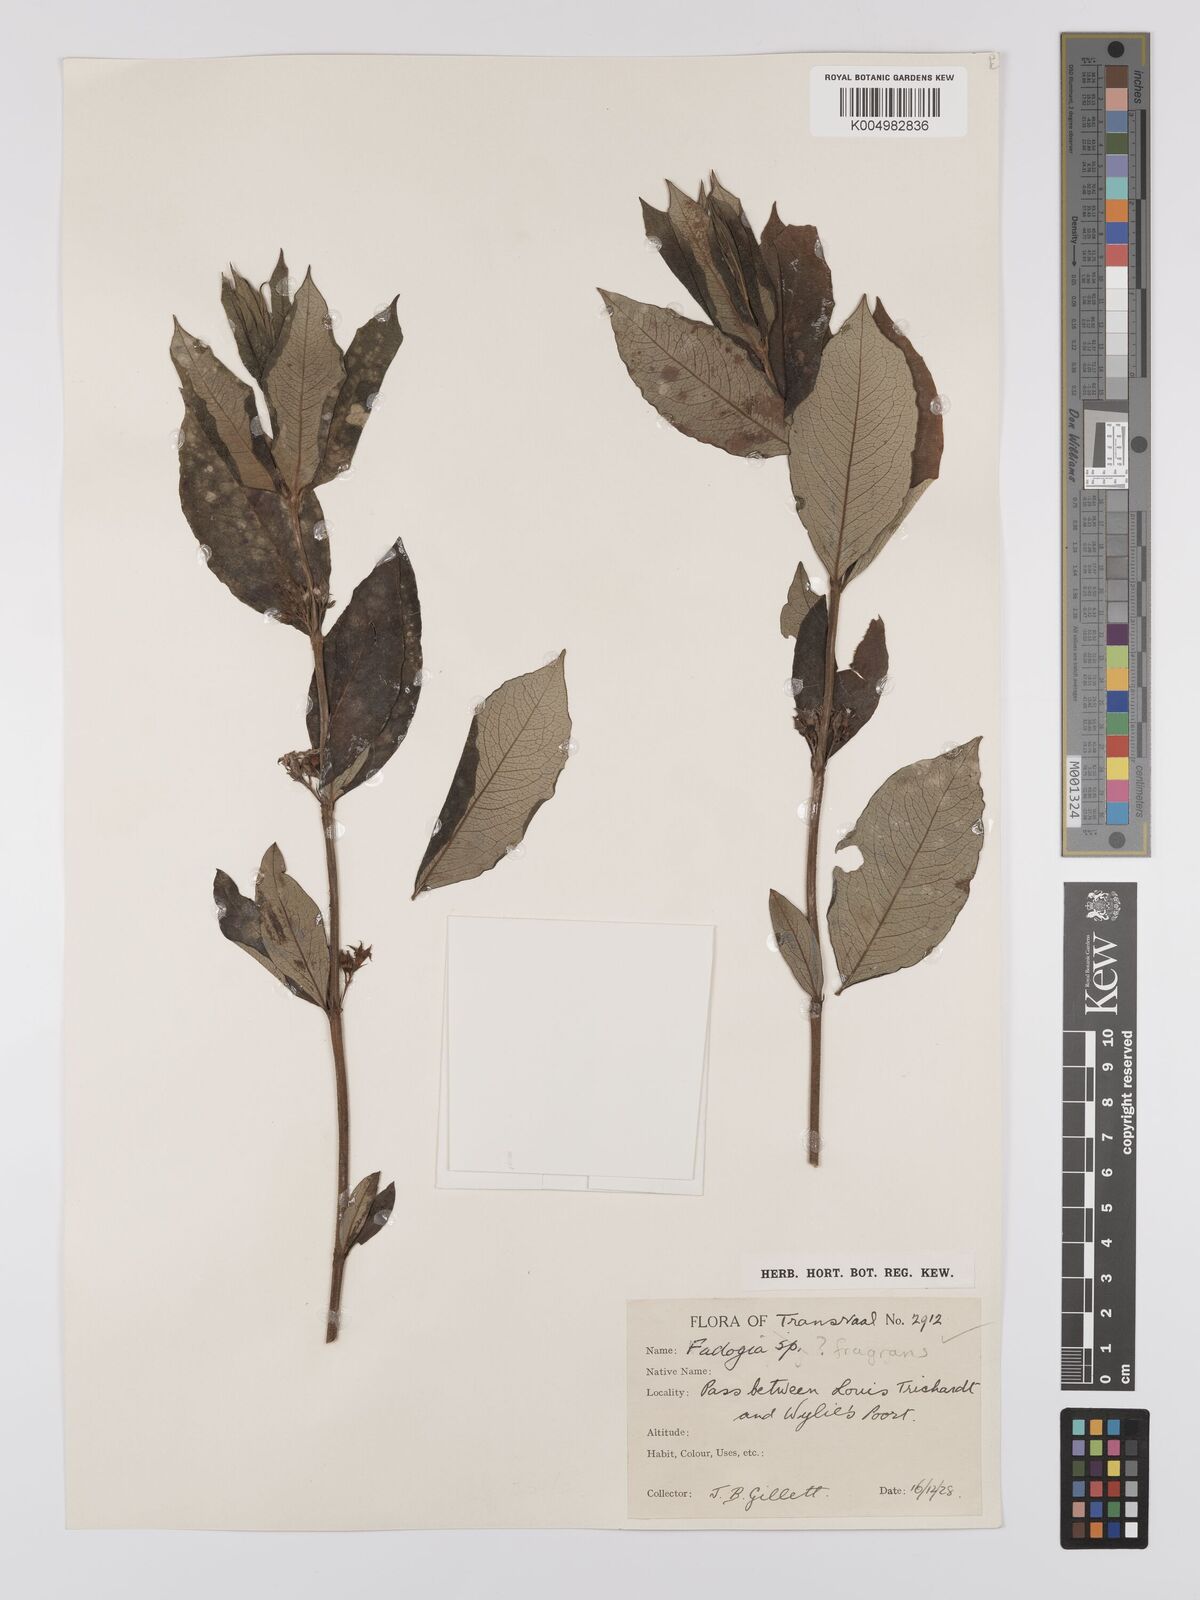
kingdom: Plantae
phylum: Tracheophyta
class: Magnoliopsida
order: Gentianales
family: Rubiaceae
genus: Fadogia
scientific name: Fadogia triphylla
